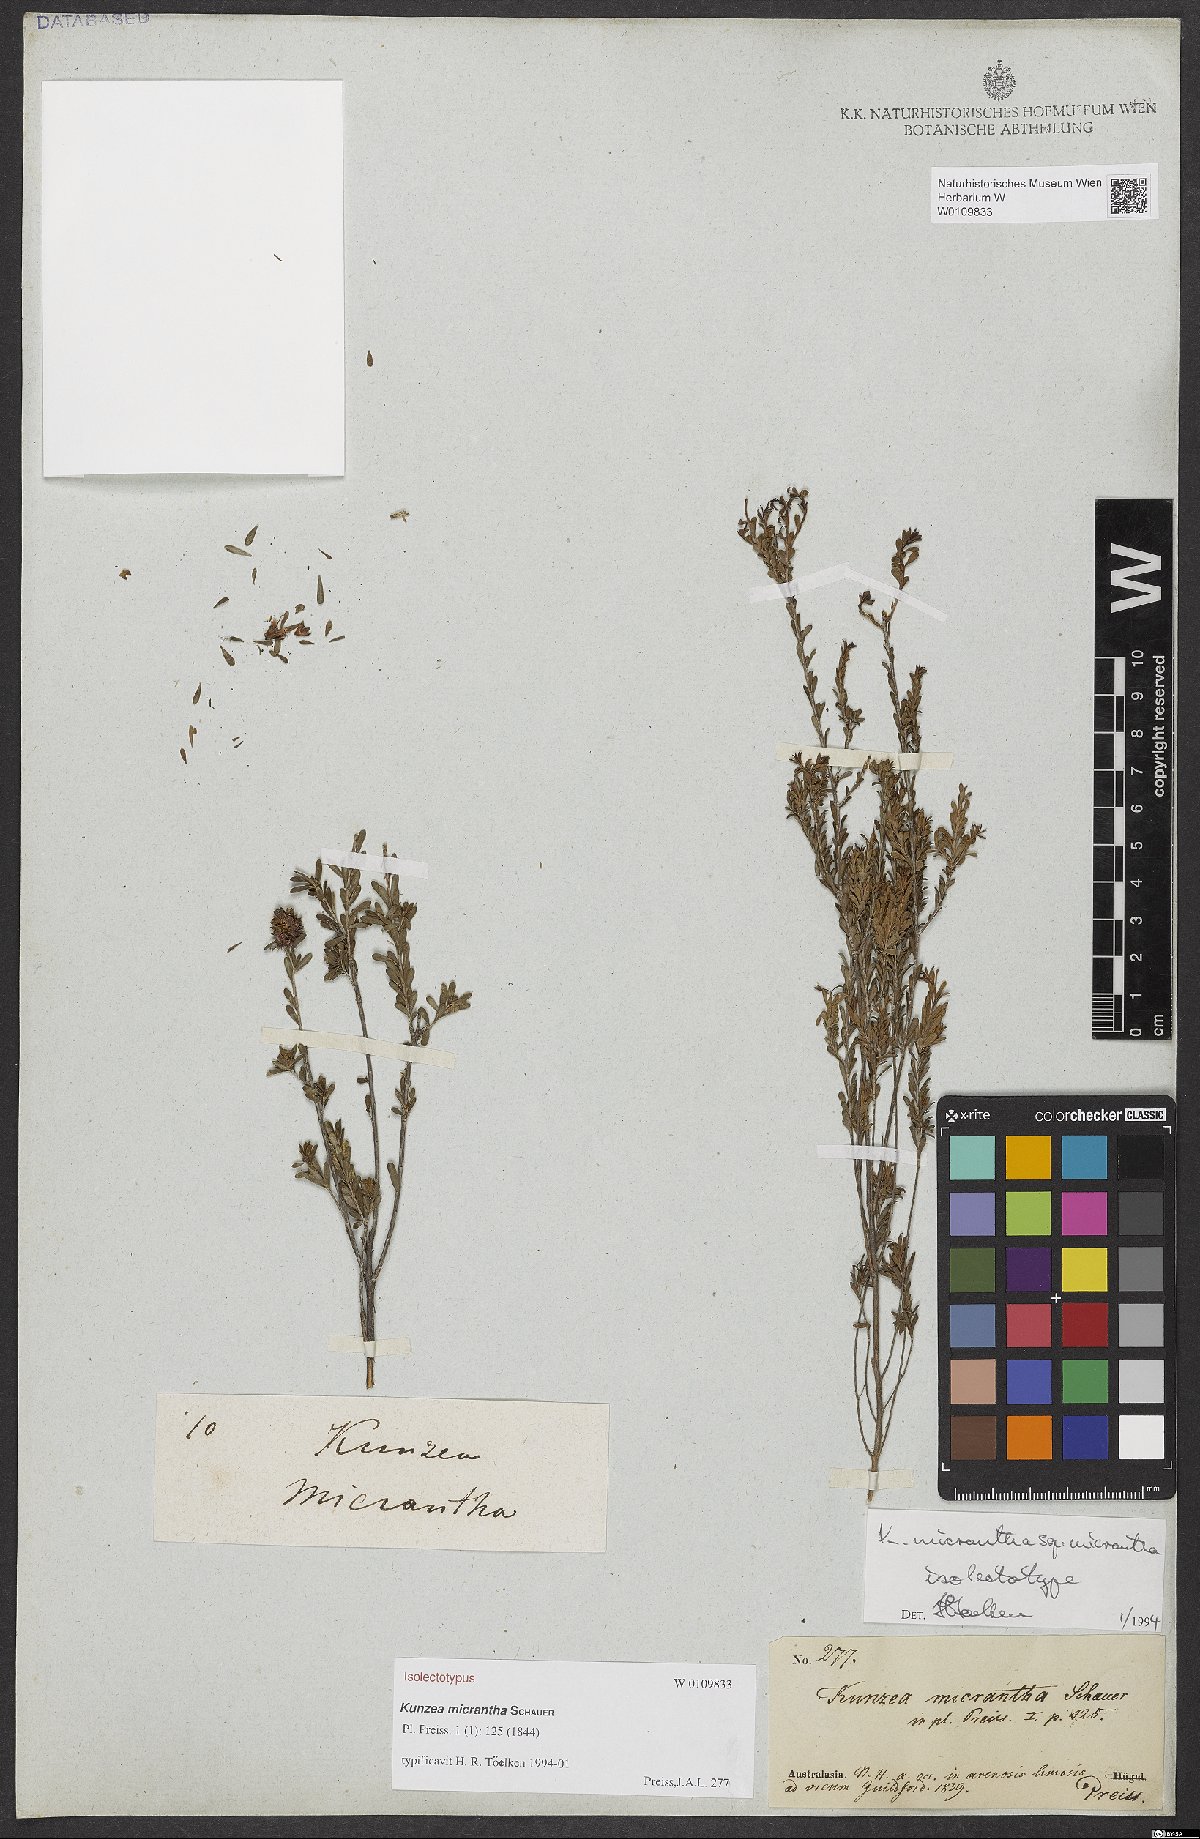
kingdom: Plantae
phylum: Tracheophyta
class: Magnoliopsida
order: Myrtales
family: Myrtaceae
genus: Kunzea
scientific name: Kunzea micrantha
